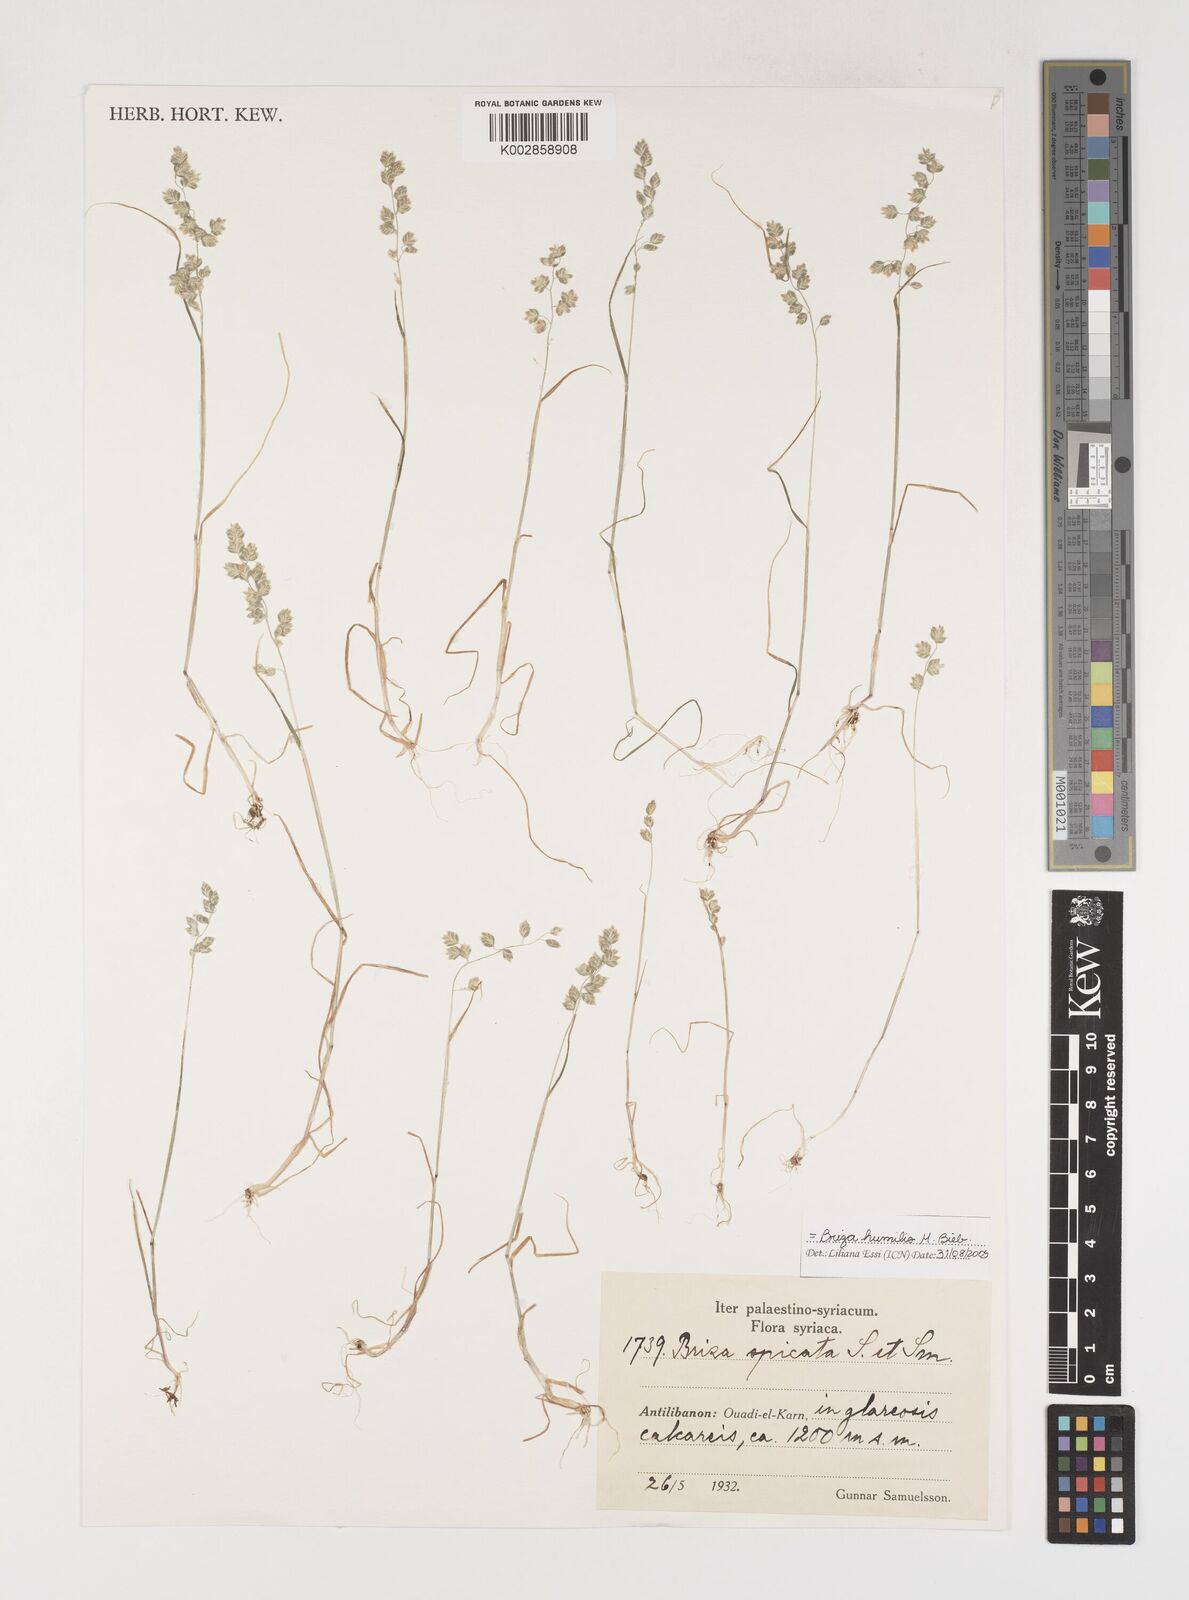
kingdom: Plantae
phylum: Tracheophyta
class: Liliopsida
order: Poales
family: Poaceae
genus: Briza
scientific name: Briza humilis
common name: Spiked quaking grass
